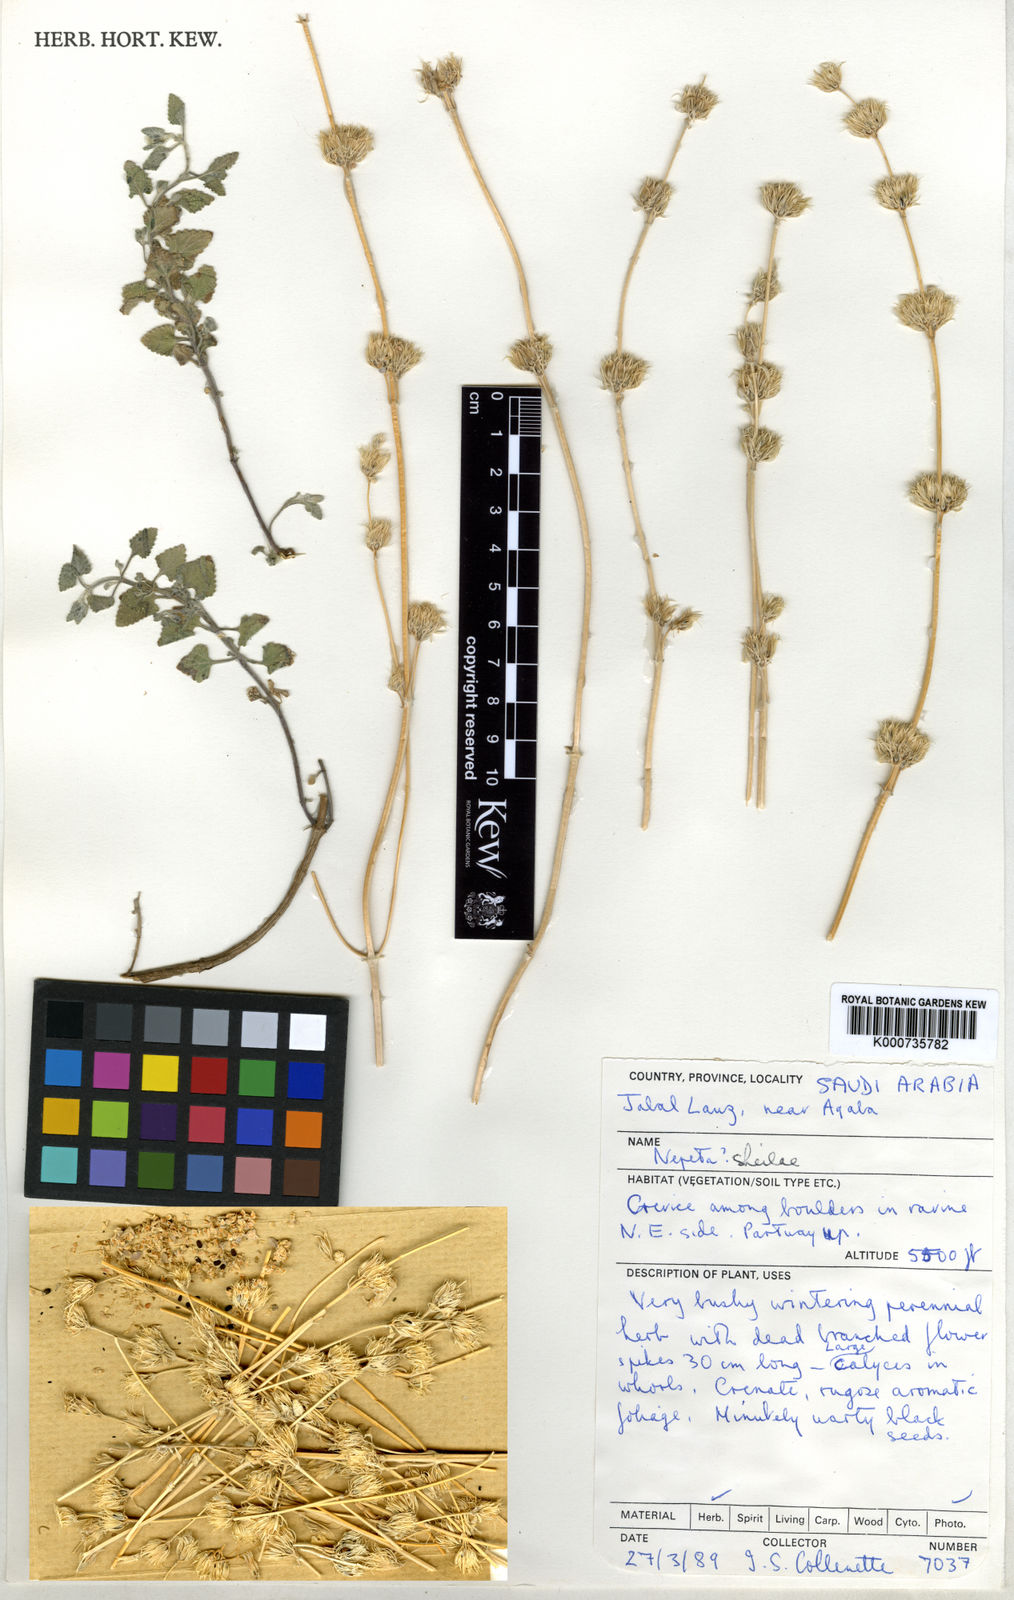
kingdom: Plantae
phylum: Tracheophyta
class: Magnoliopsida
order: Lamiales
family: Lamiaceae
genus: Nepeta
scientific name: Nepeta sheilae
